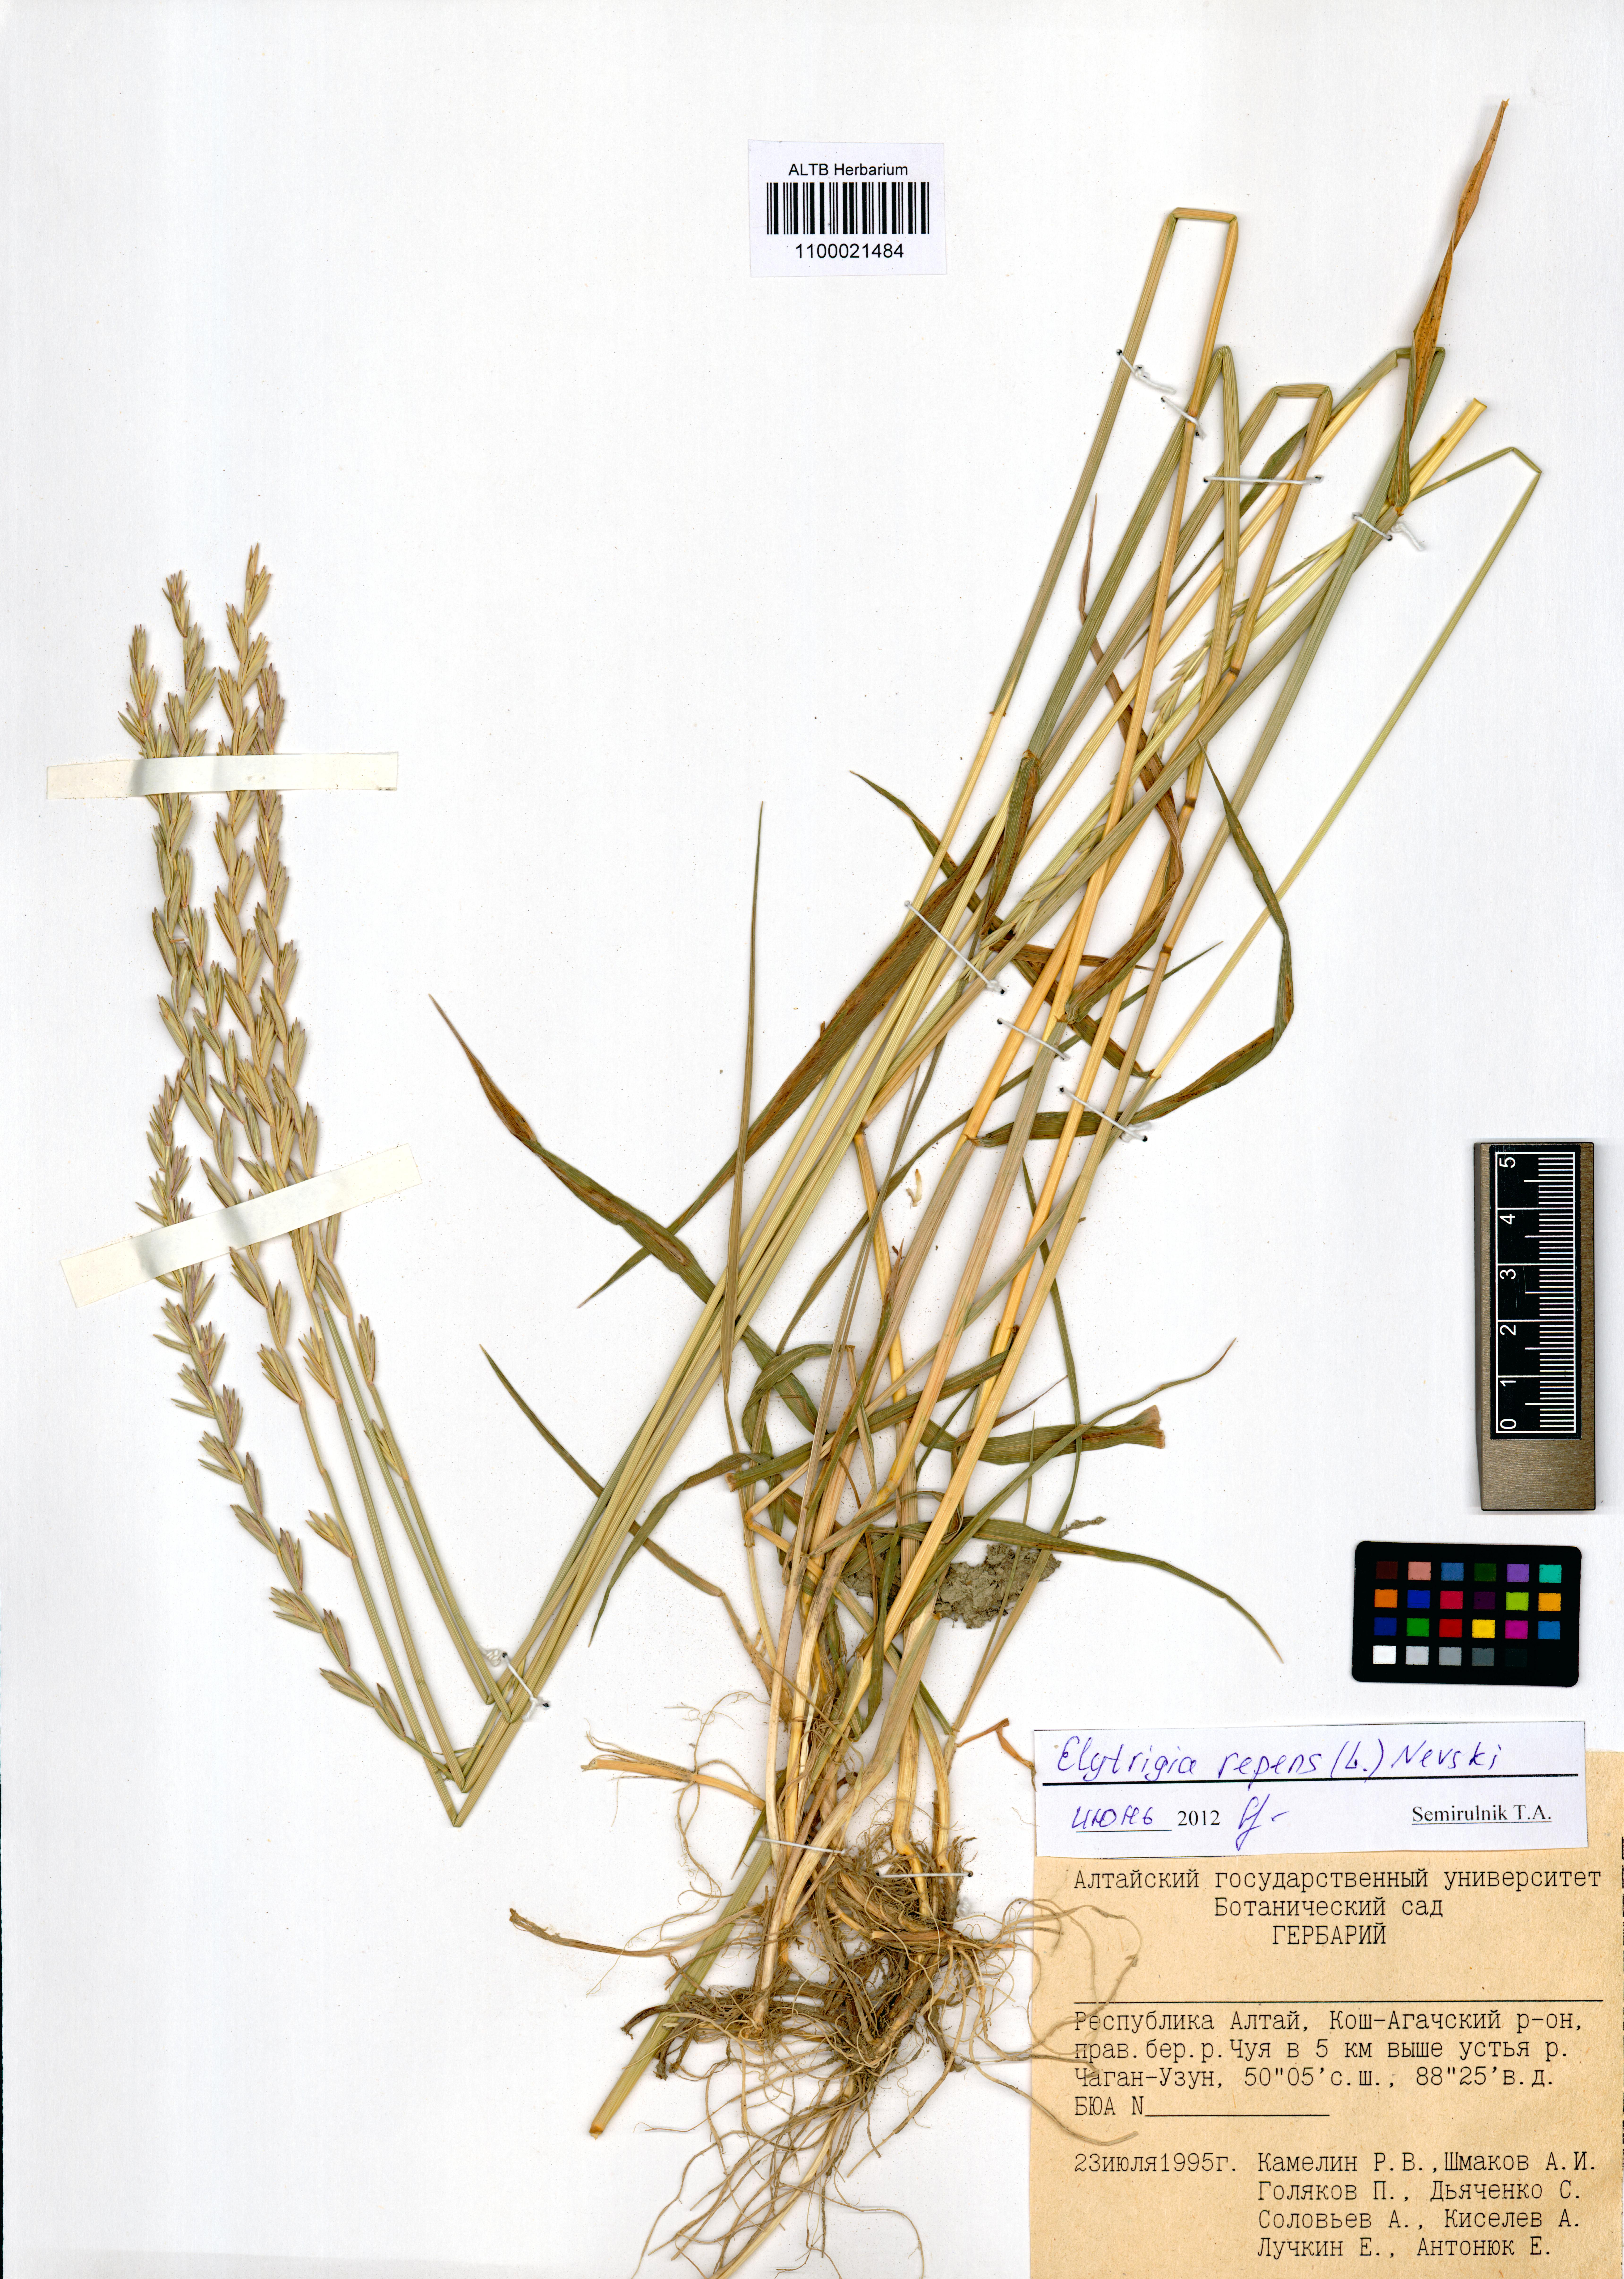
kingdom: Plantae
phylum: Tracheophyta
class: Liliopsida
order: Poales
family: Poaceae
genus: Elymus
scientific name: Elymus repens
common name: Quackgrass
